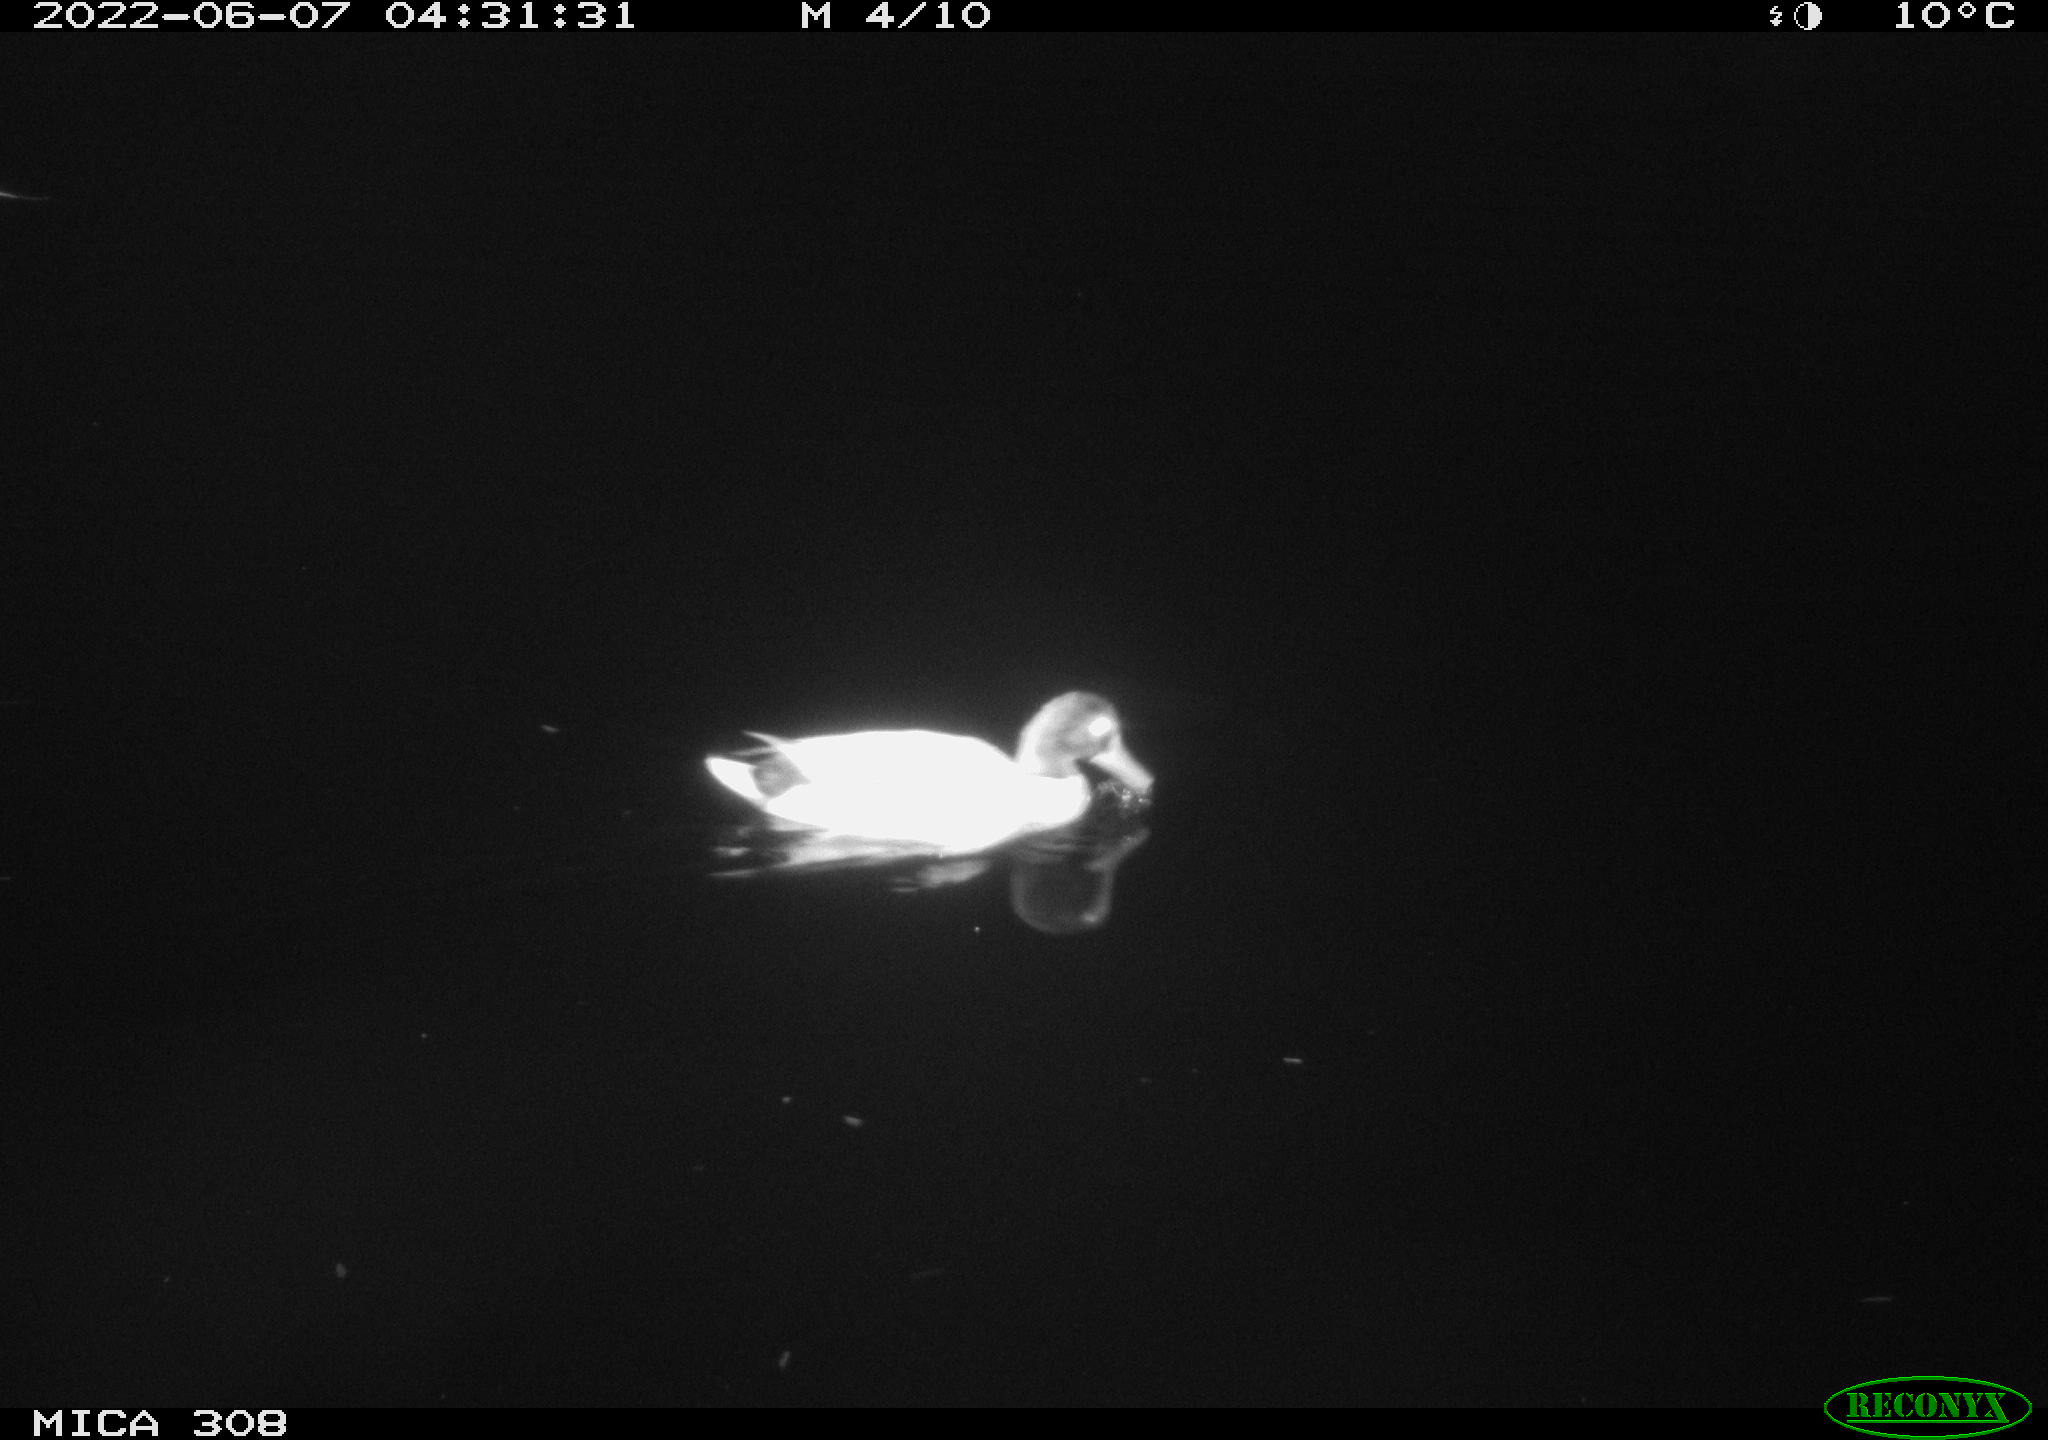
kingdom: Animalia
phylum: Chordata
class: Aves
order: Anseriformes
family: Anatidae
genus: Anas
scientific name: Anas platyrhynchos
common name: Mallard
